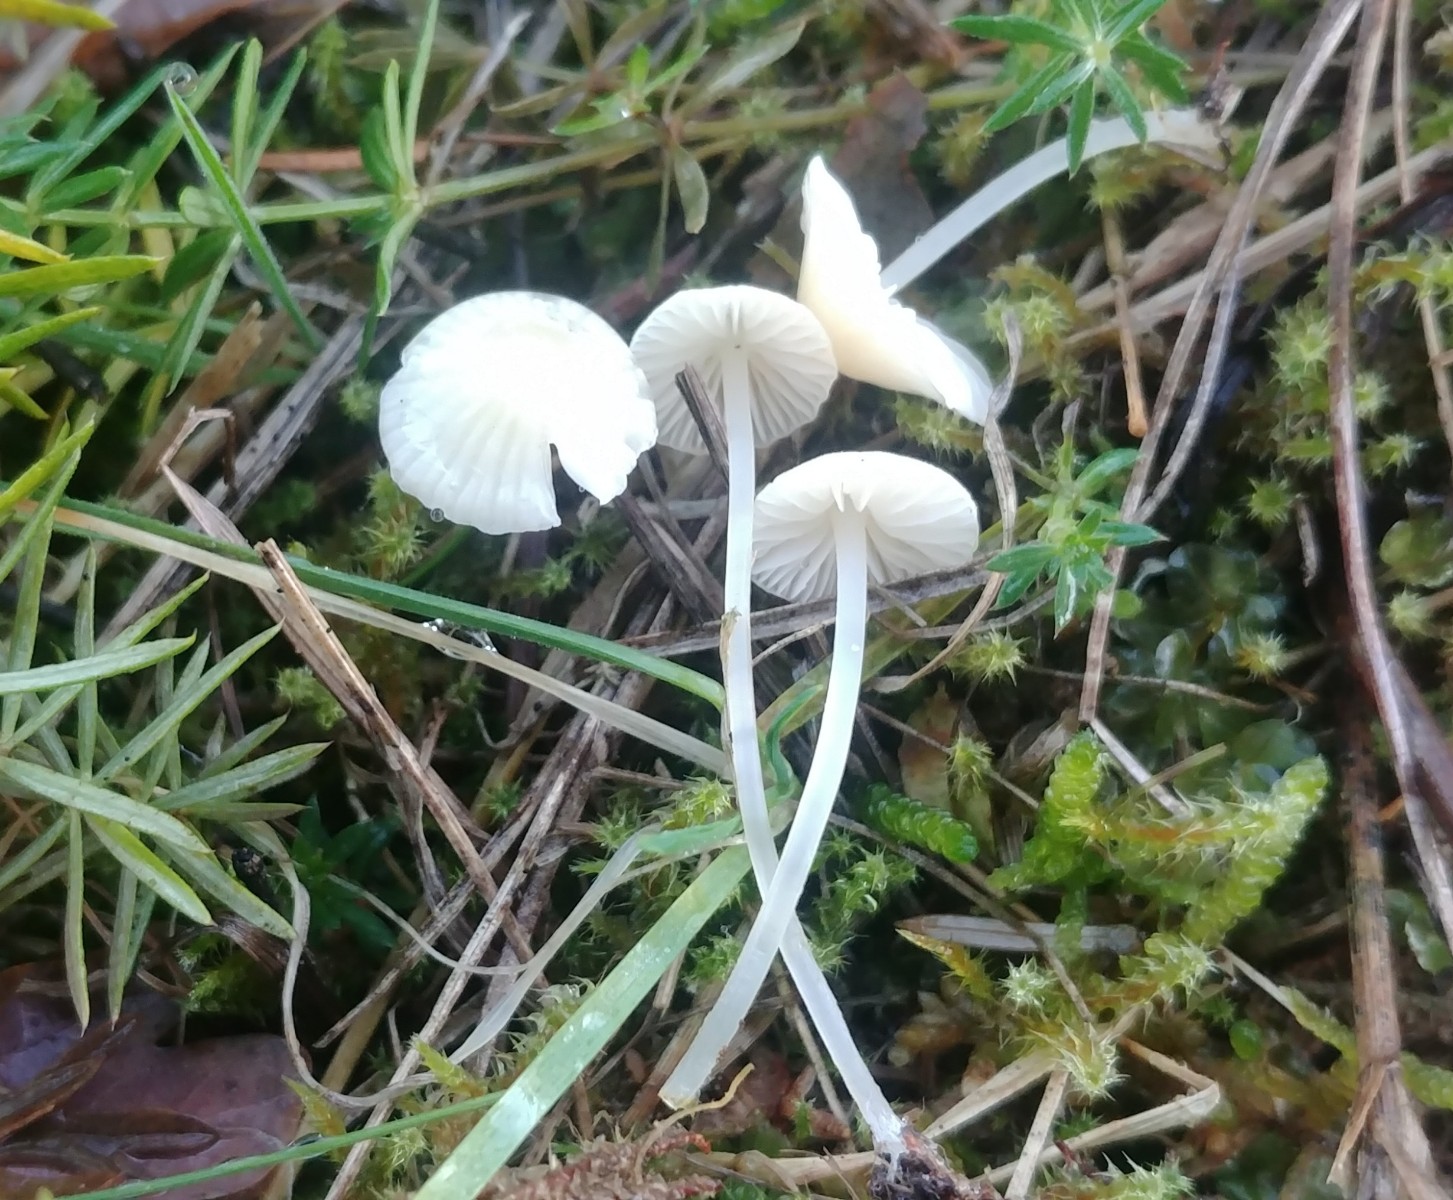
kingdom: Fungi
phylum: Basidiomycota
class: Agaricomycetes
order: Agaricales
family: Mycenaceae
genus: Atheniella
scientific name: Atheniella flavoalba
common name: gulhvid huesvamp
